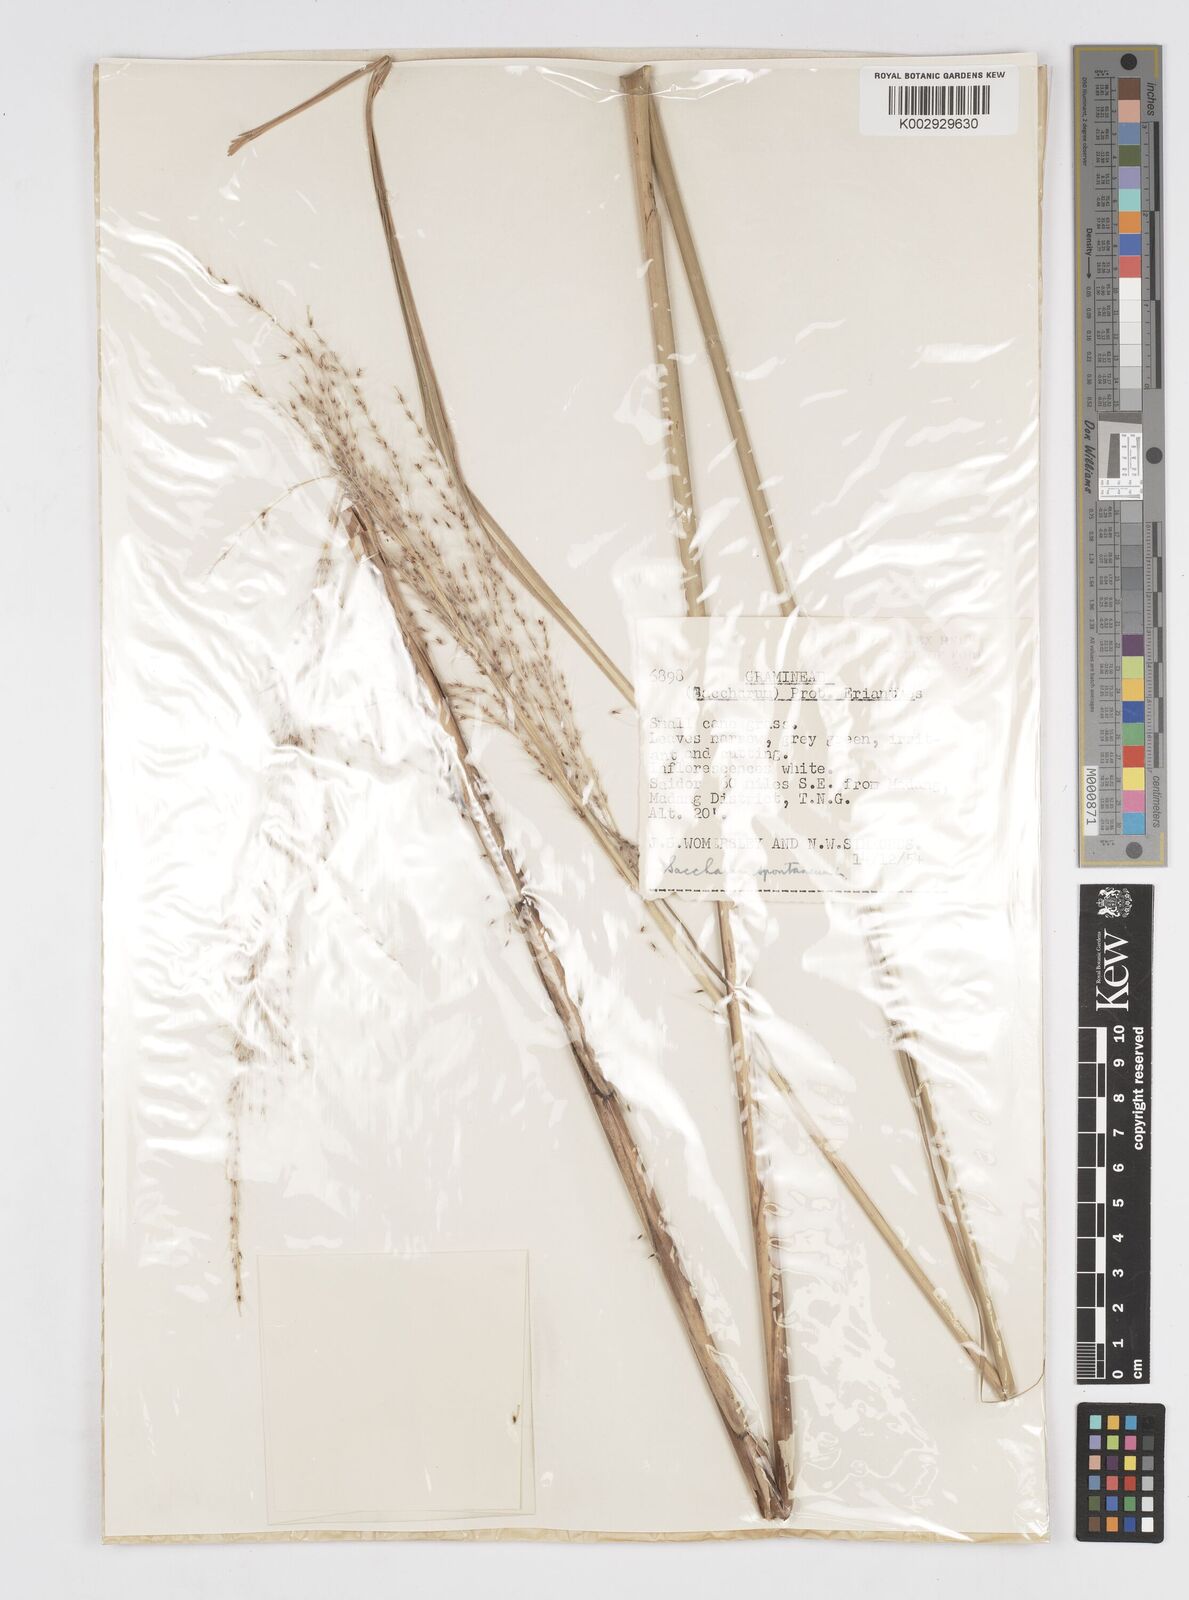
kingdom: Plantae
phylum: Tracheophyta
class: Liliopsida
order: Poales
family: Poaceae
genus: Saccharum
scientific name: Saccharum spontaneum
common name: Wild sugarcane
